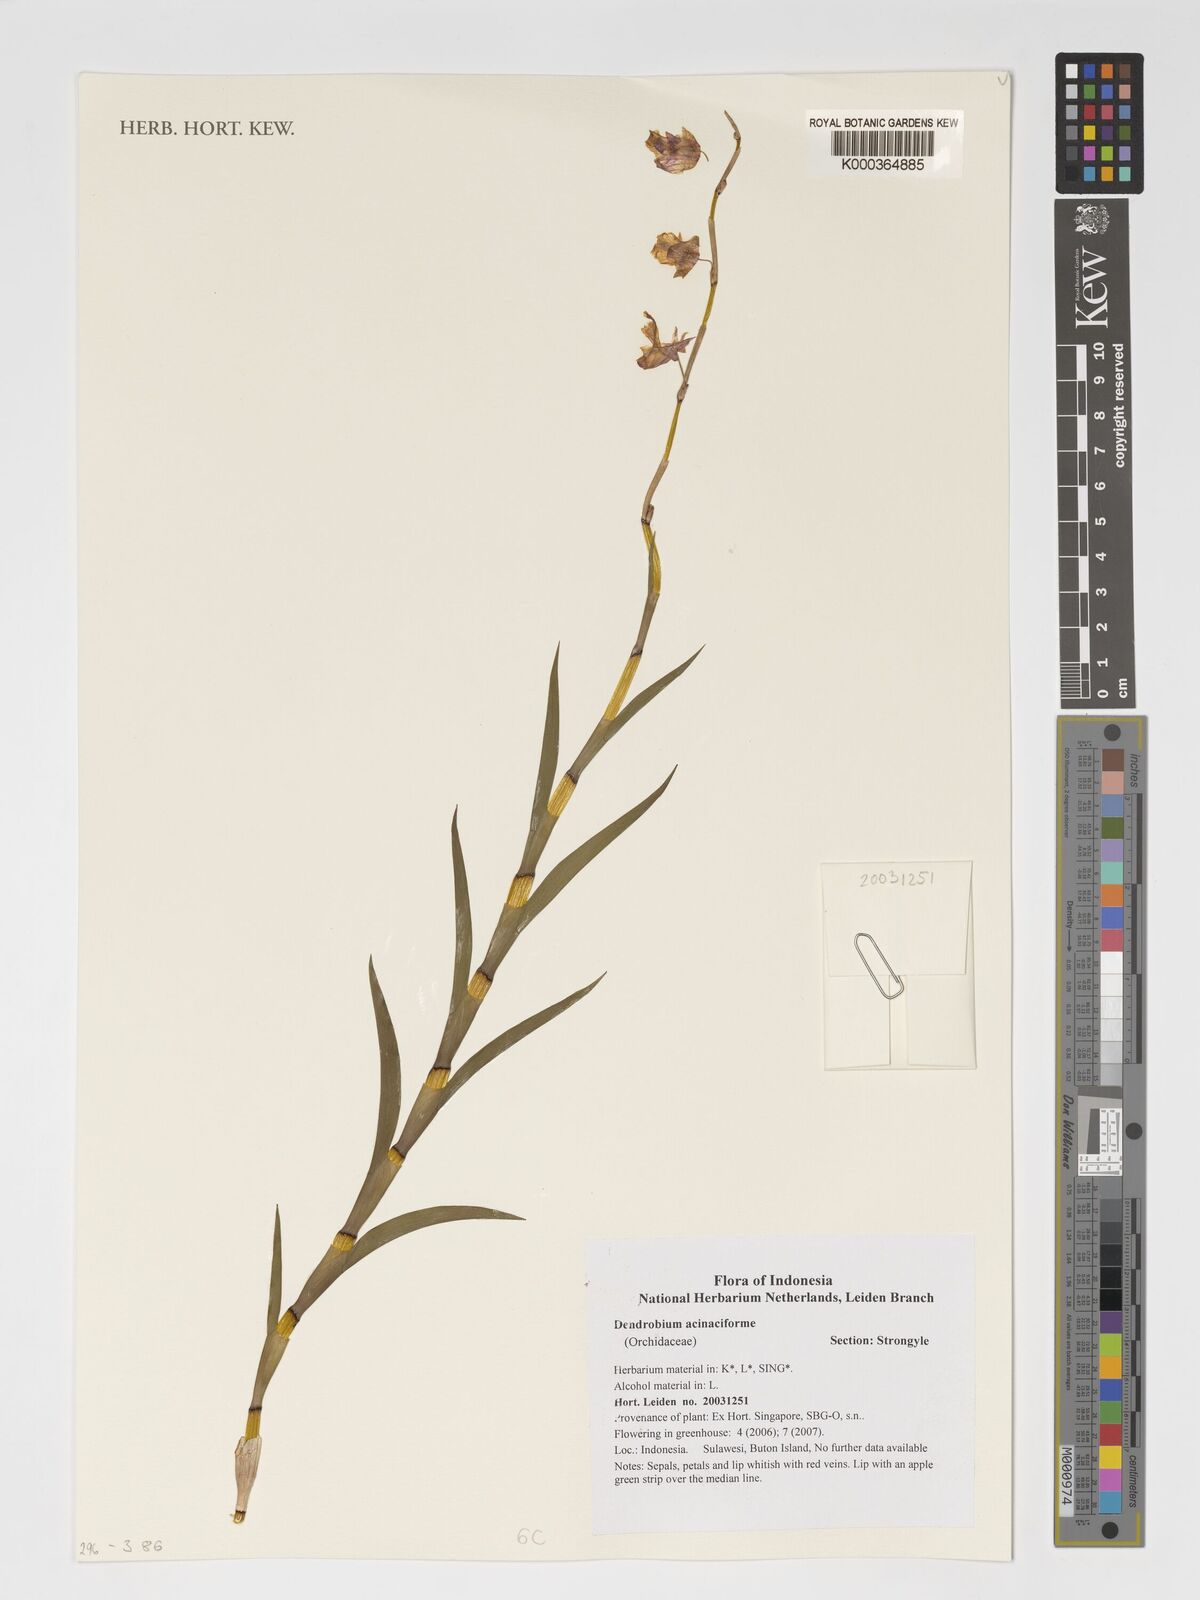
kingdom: Plantae
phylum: Tracheophyta
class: Liliopsida
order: Asparagales
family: Orchidaceae
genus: Dendrobium
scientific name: Dendrobium acinaciforme
